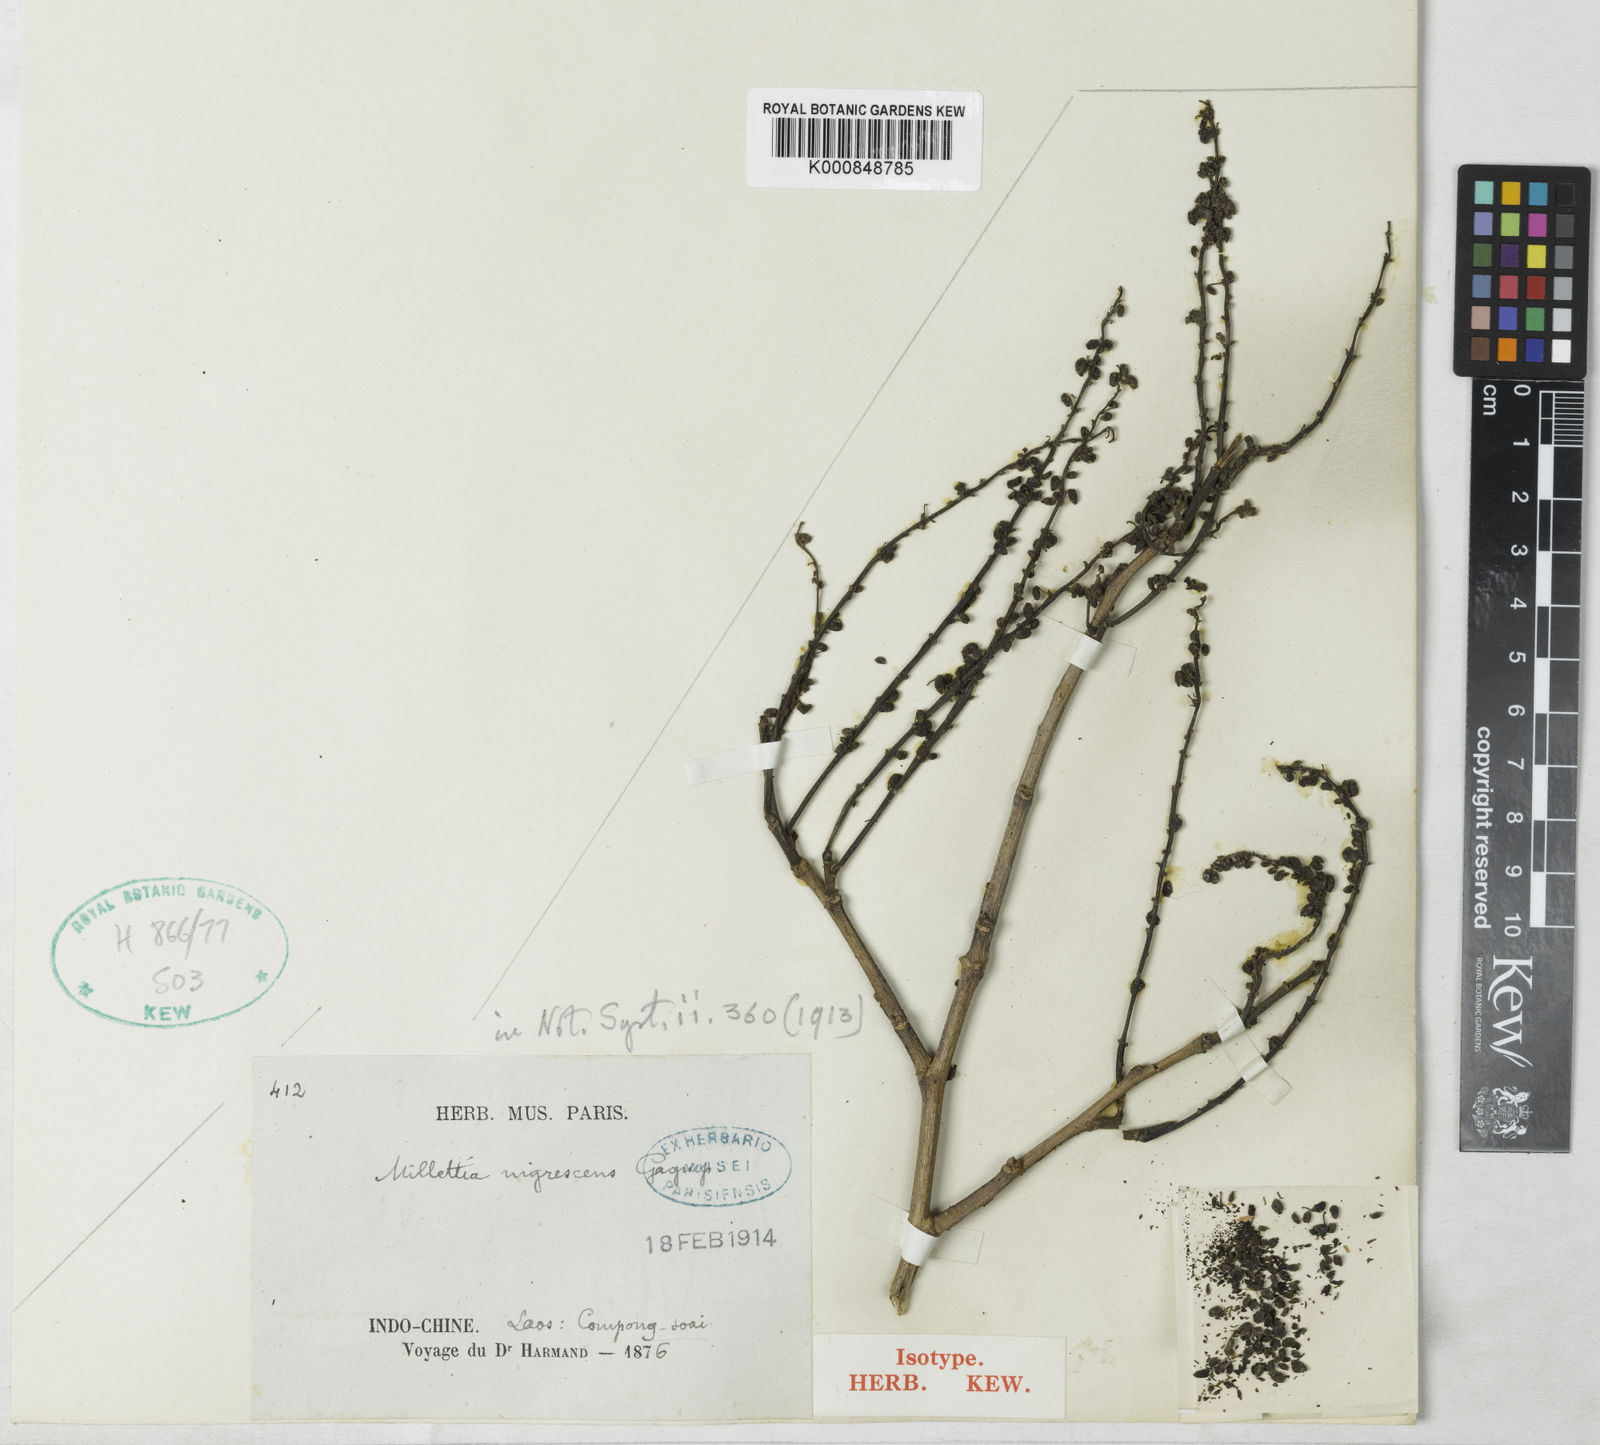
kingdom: Plantae
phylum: Tracheophyta
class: Magnoliopsida
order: Fabales
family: Fabaceae
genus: Millettia
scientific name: Millettia nigrescens
